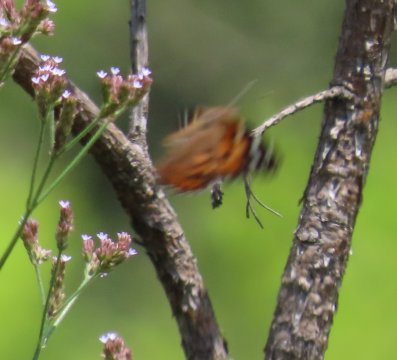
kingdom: Animalia
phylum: Arthropoda
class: Insecta
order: Lepidoptera
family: Nymphalidae
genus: Vanessa
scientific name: Vanessa virginiensis
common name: American Lady
